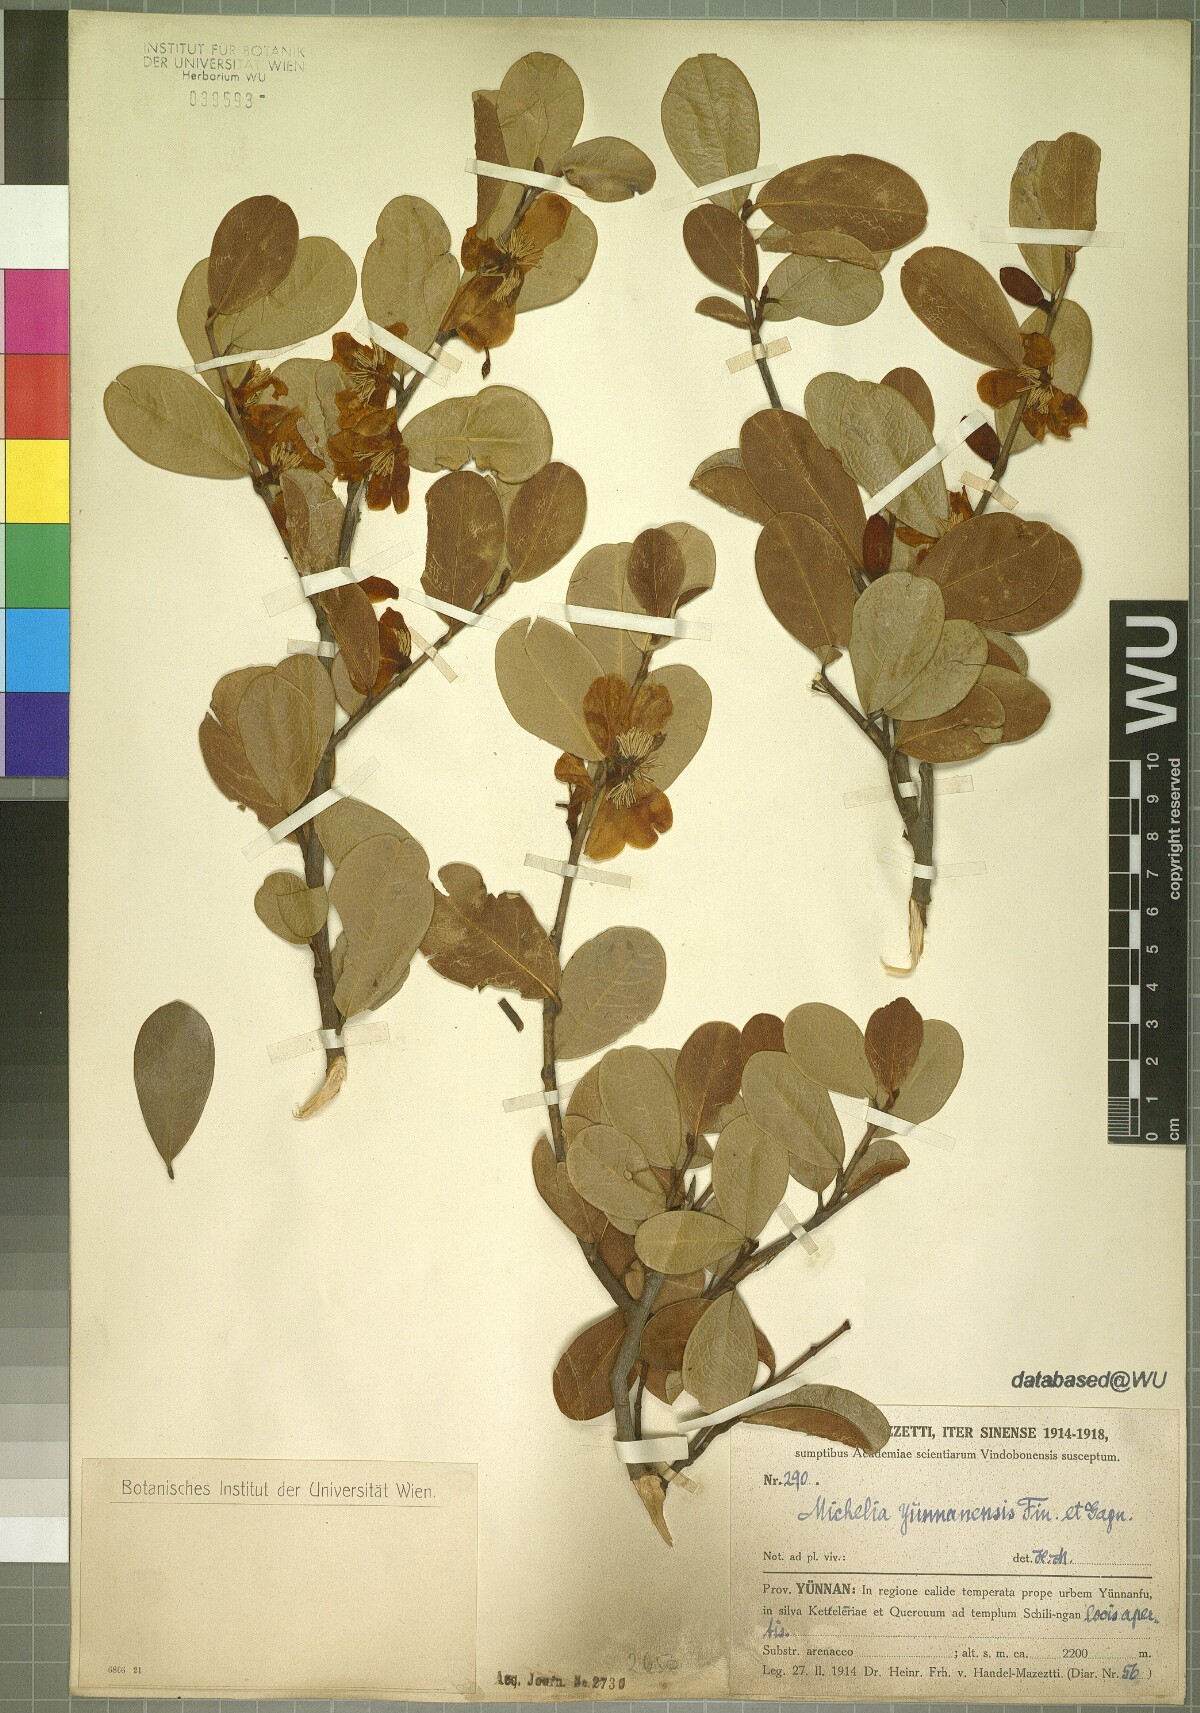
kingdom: Plantae
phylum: Tracheophyta
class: Magnoliopsida
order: Magnoliales
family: Magnoliaceae
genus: Magnolia
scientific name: Magnolia laevifolia
